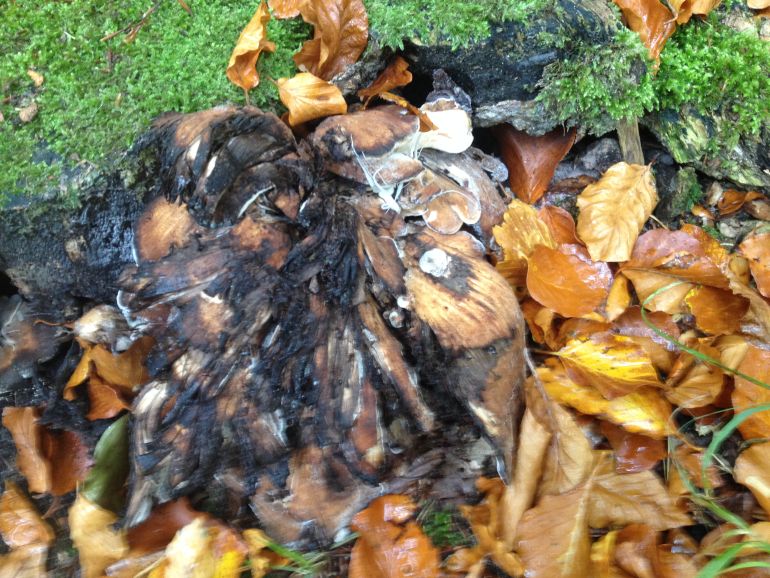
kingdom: Fungi
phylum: Basidiomycota
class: Agaricomycetes
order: Polyporales
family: Meripilaceae
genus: Meripilus
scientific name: Meripilus giganteus
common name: kæmpeporesvamp
